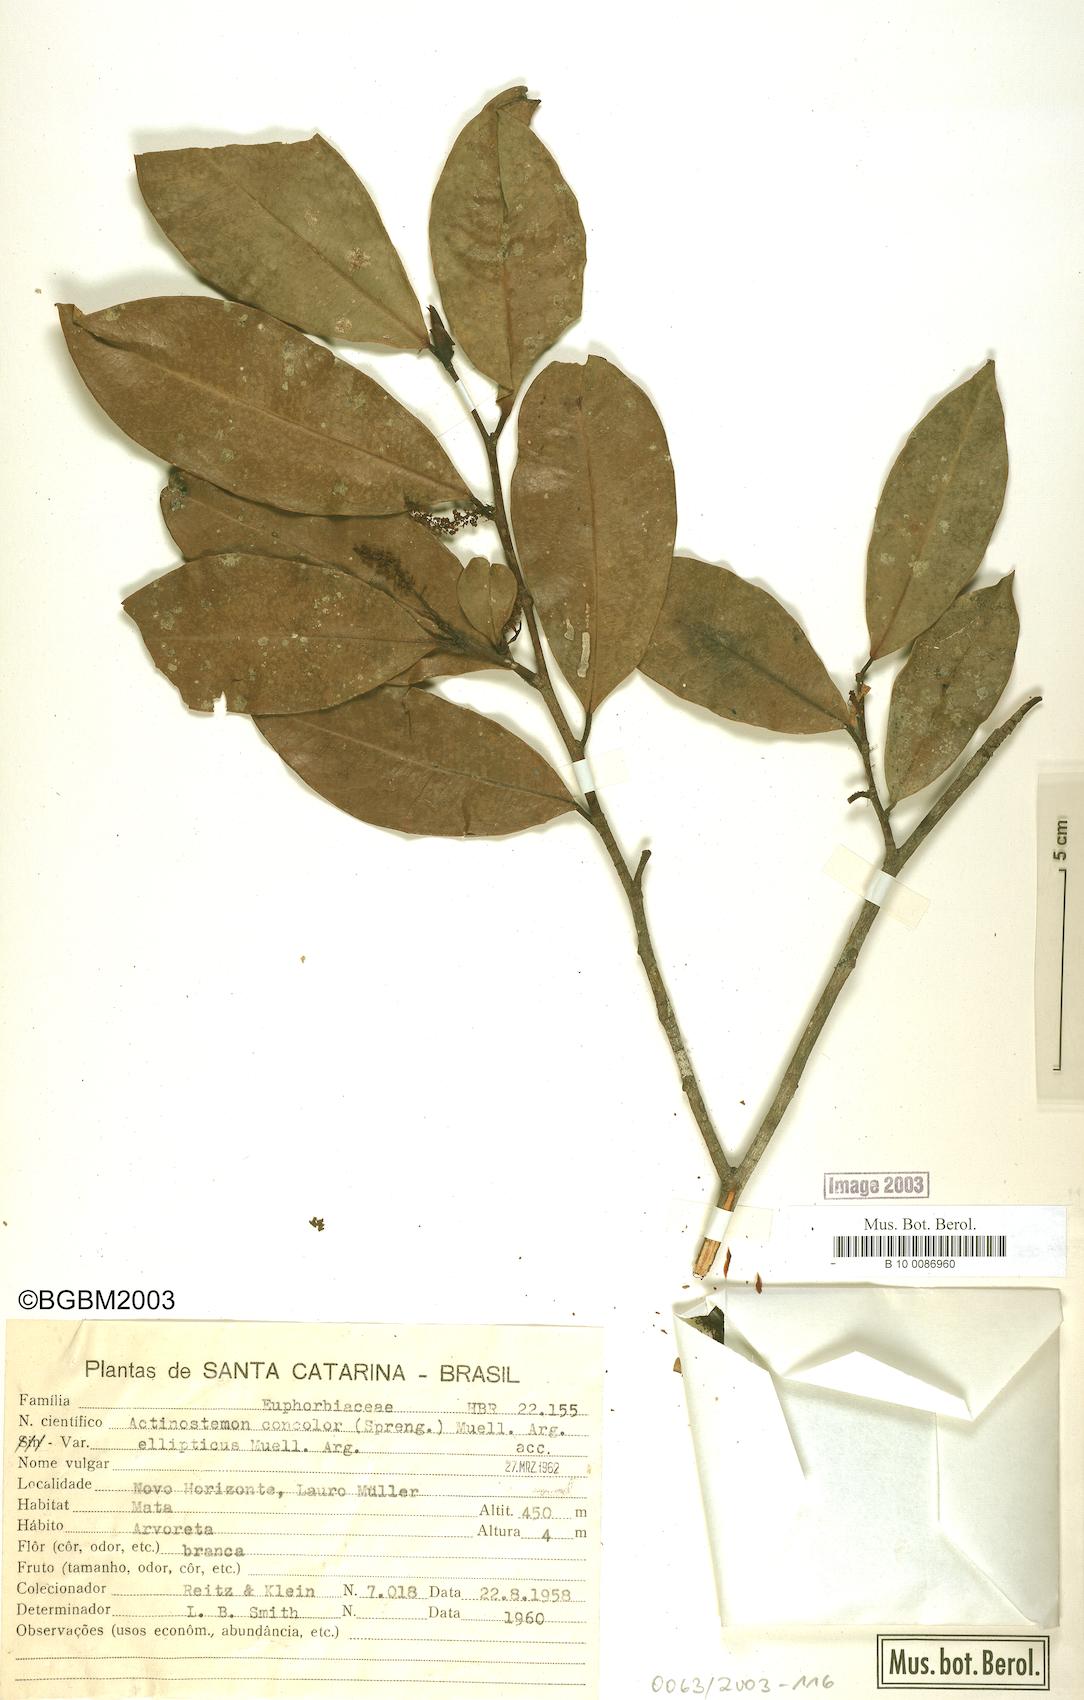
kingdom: Plantae
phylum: Tracheophyta
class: Magnoliopsida
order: Malpighiales
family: Euphorbiaceae
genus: Actinostemon
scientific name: Actinostemon concolor
